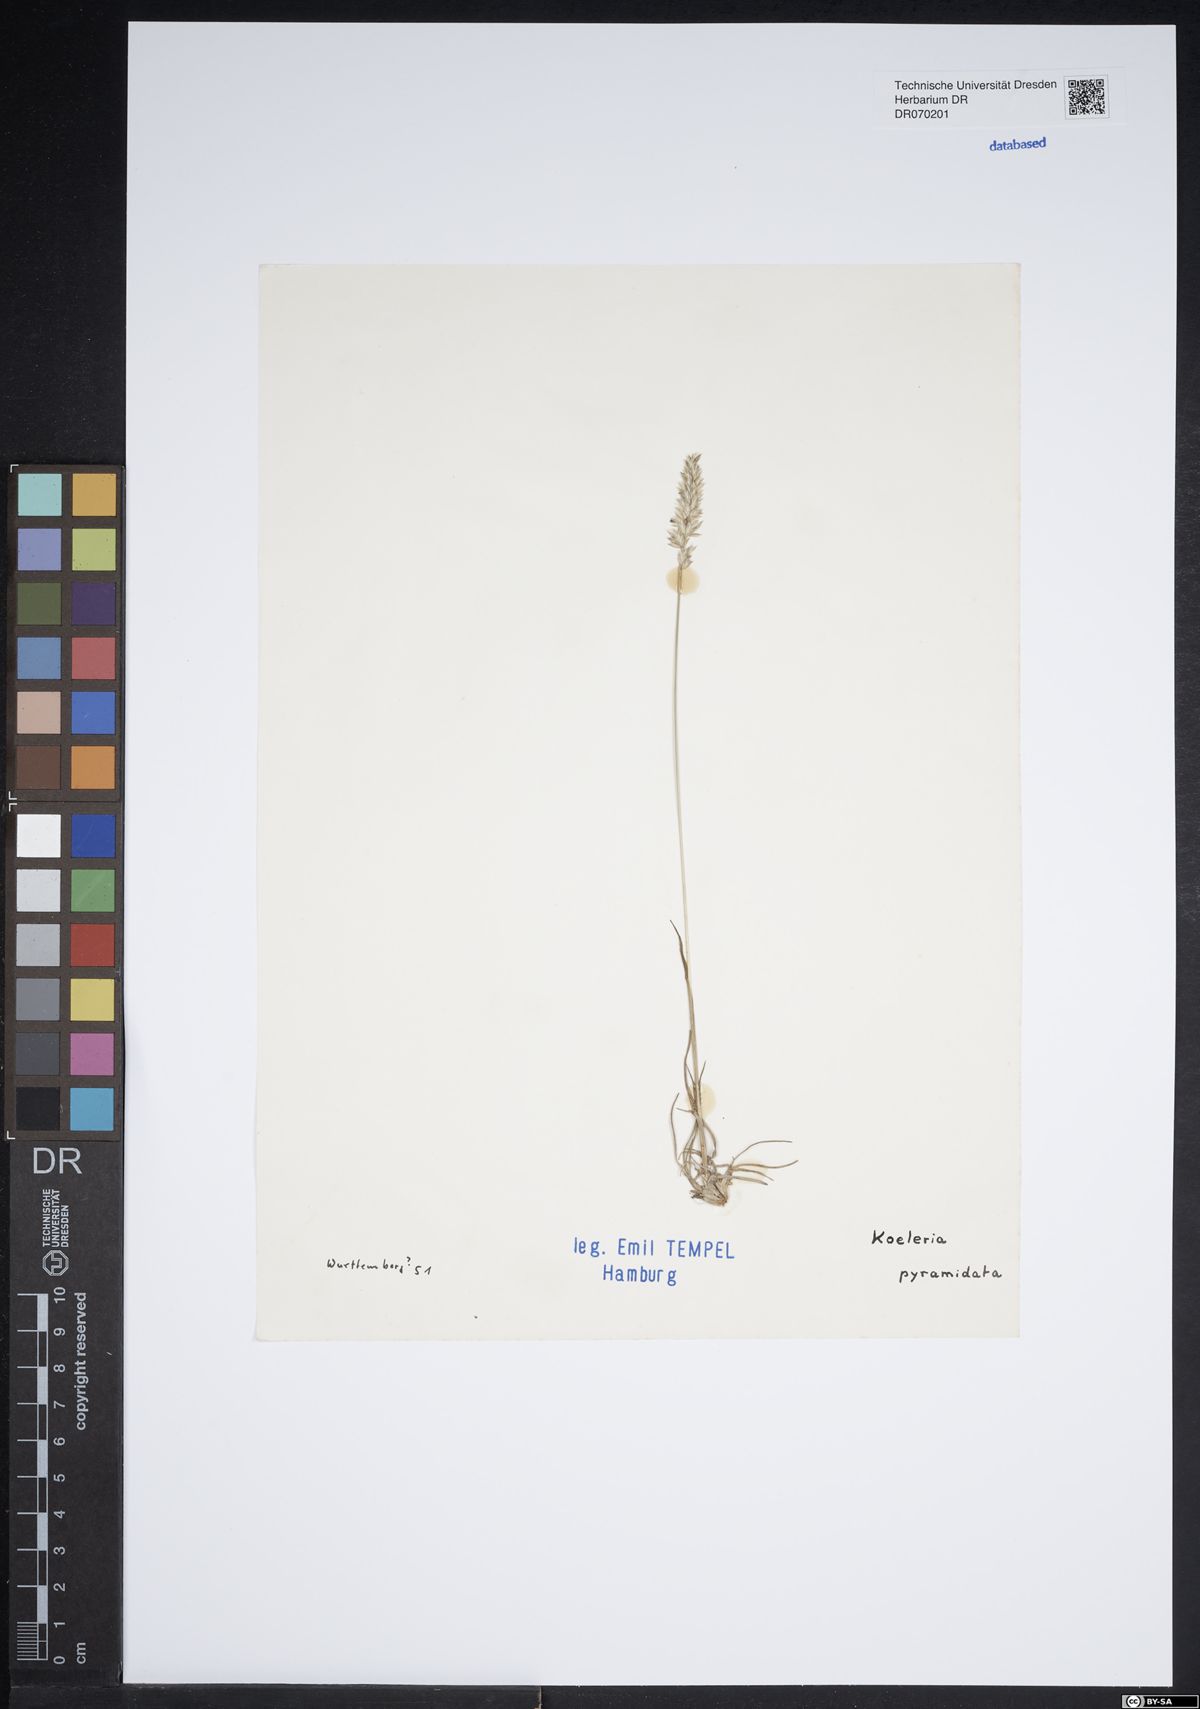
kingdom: Plantae
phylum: Tracheophyta
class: Liliopsida
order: Poales
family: Poaceae
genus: Koeleria
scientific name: Koeleria pyramidata
